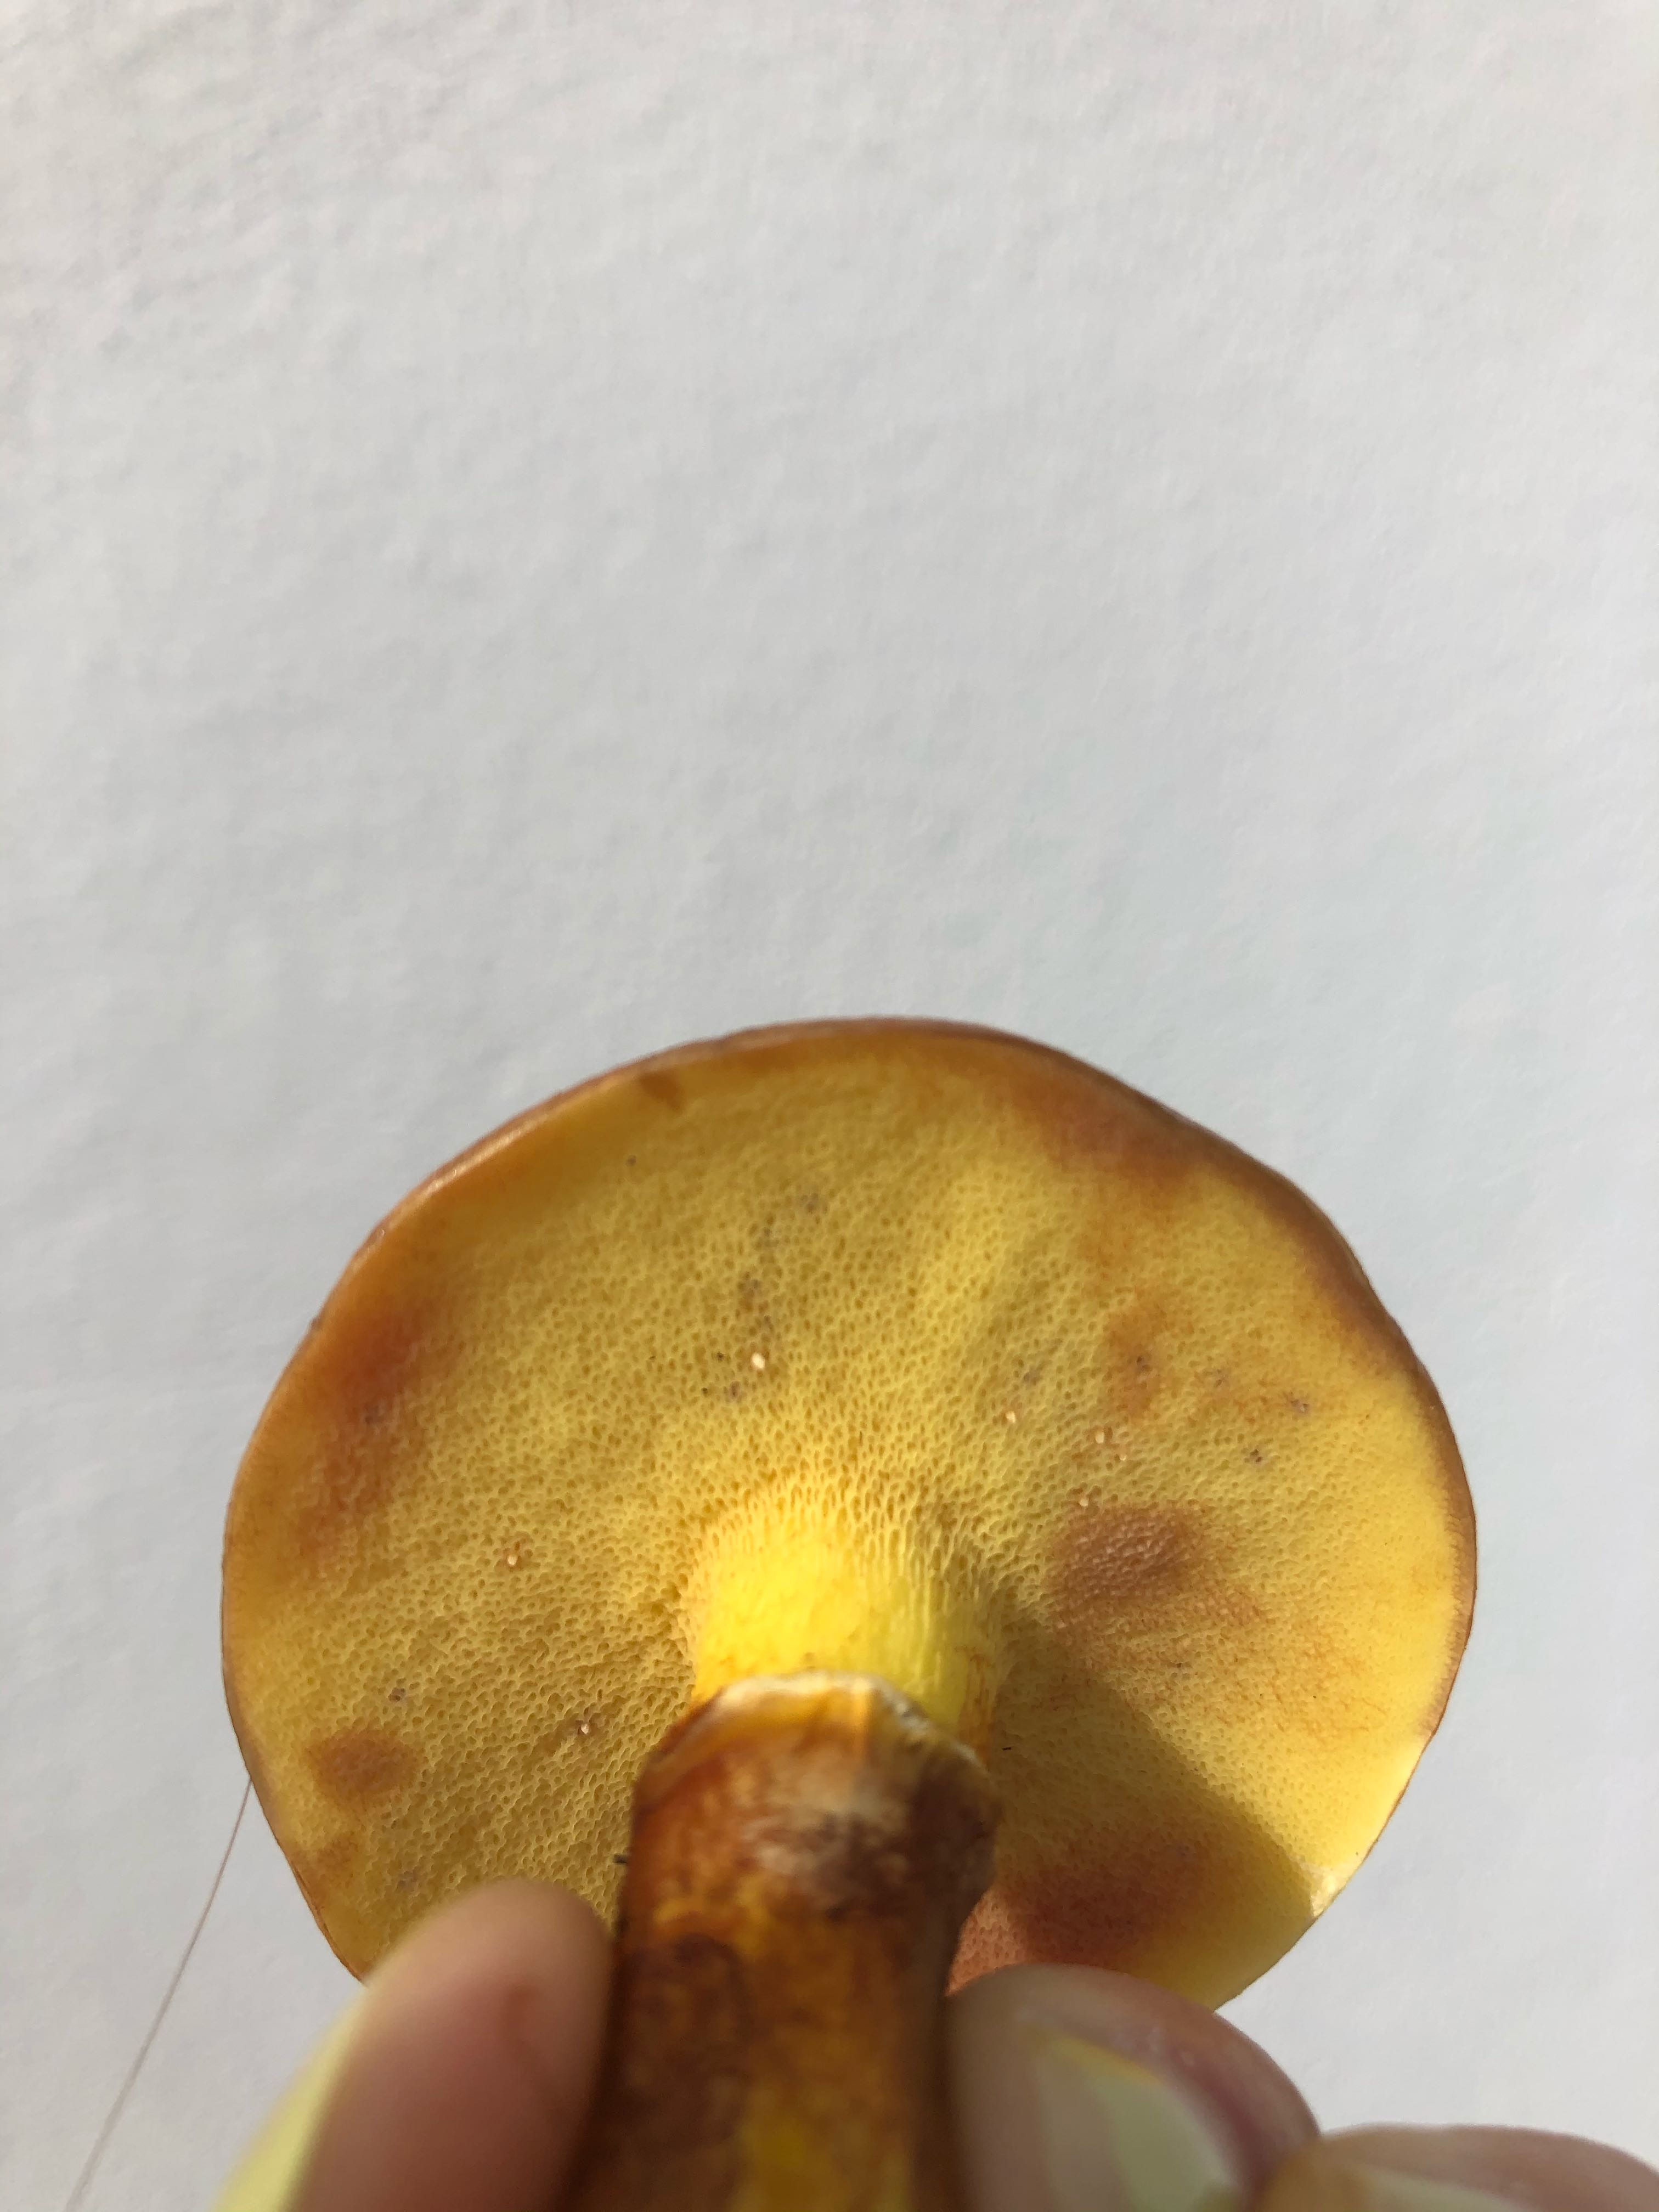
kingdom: Fungi
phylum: Basidiomycota
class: Agaricomycetes
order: Boletales
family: Suillaceae
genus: Suillus
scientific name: Suillus grevillei
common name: lærke-slimrørhat
